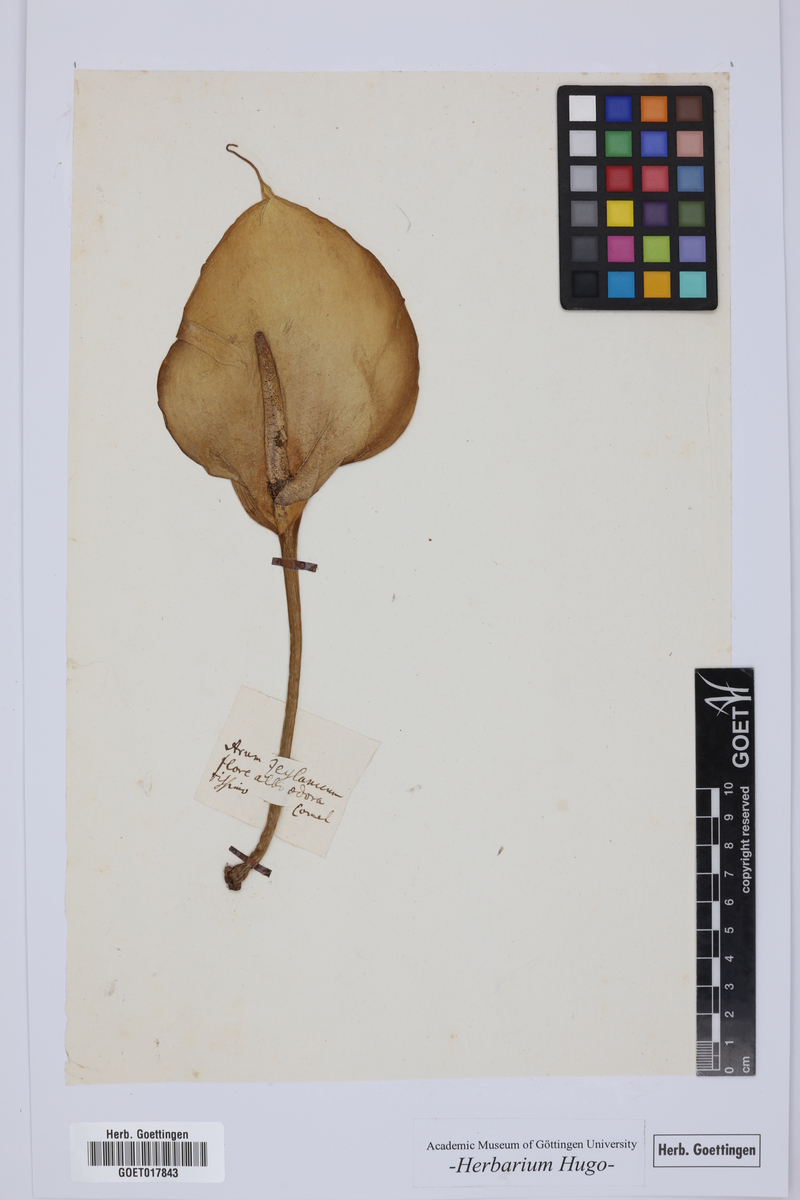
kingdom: Plantae
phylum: Tracheophyta
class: Liliopsida
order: Alismatales
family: Araceae
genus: Arum
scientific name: Arum
